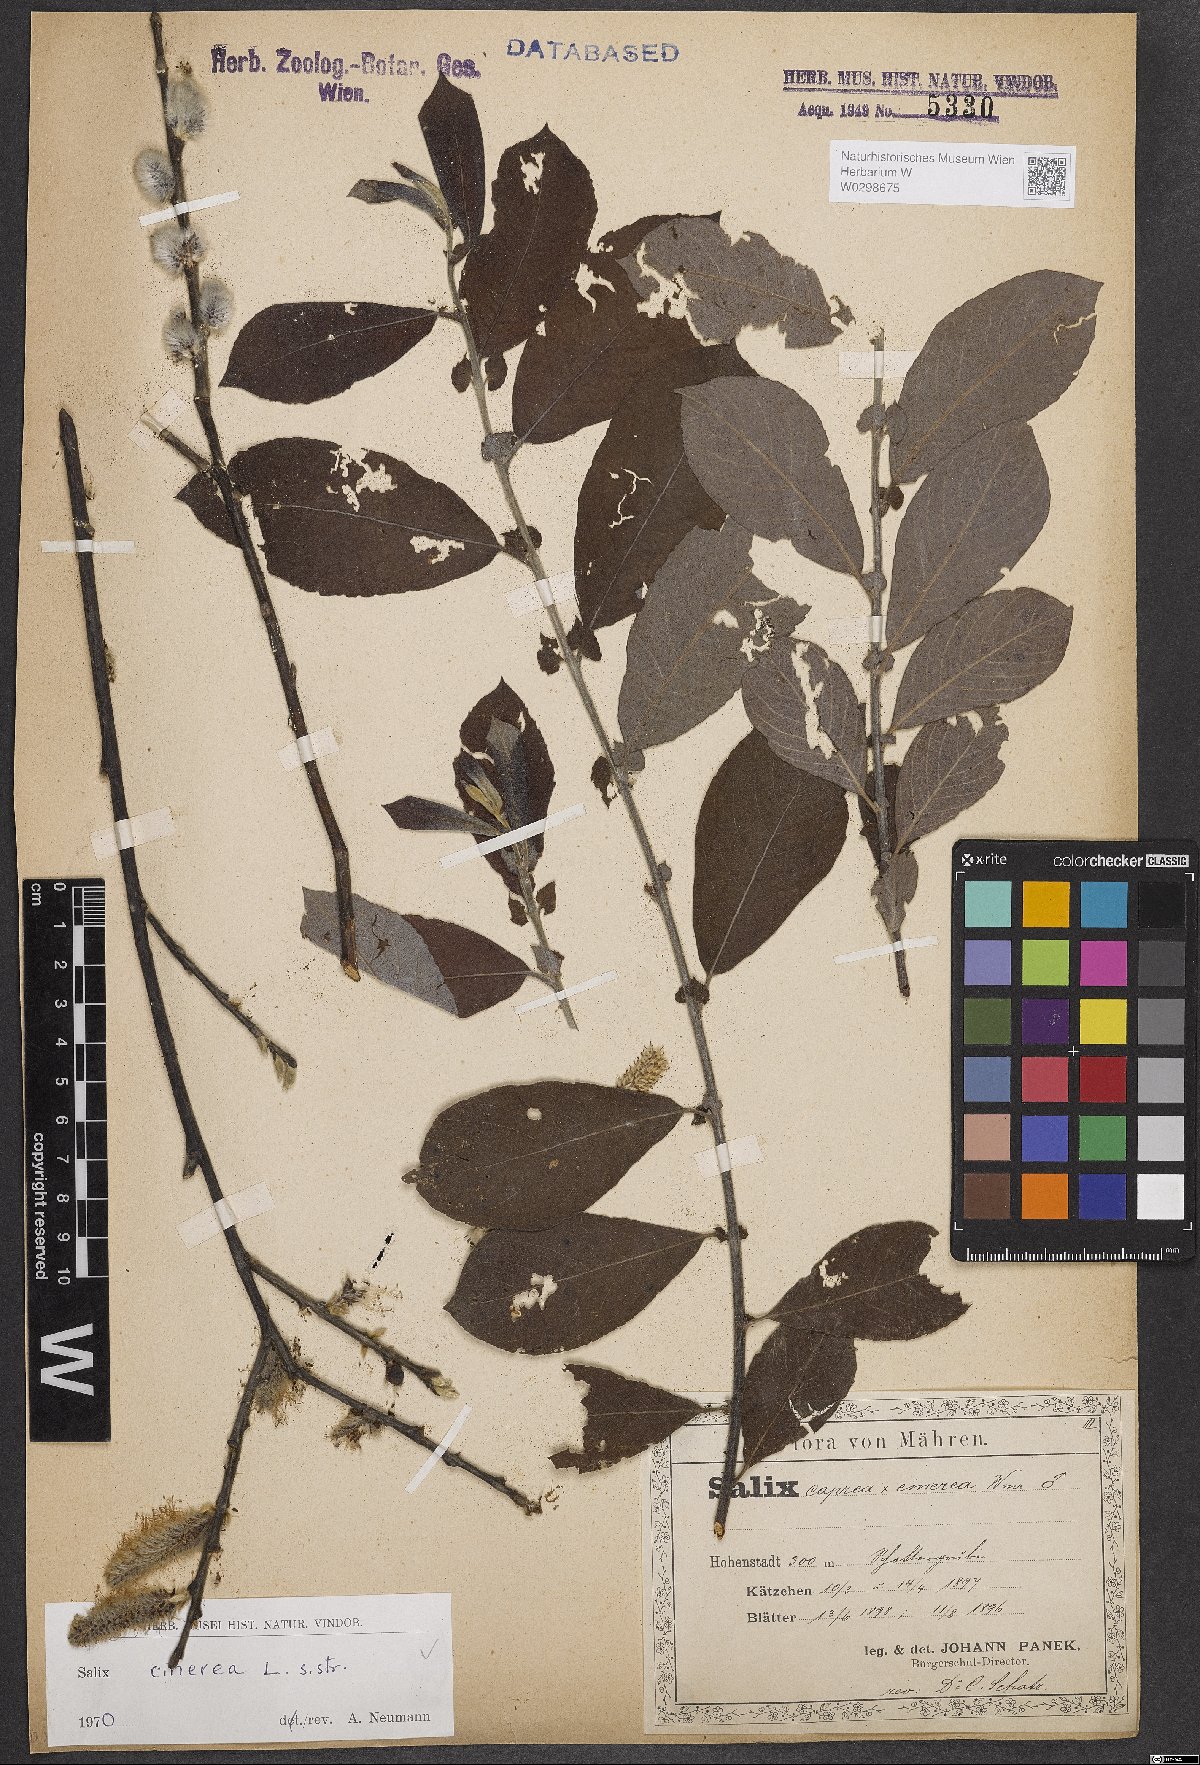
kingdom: Plantae
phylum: Tracheophyta
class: Magnoliopsida
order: Malpighiales
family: Salicaceae
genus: Salix
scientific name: Salix cinerea
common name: Common sallow
